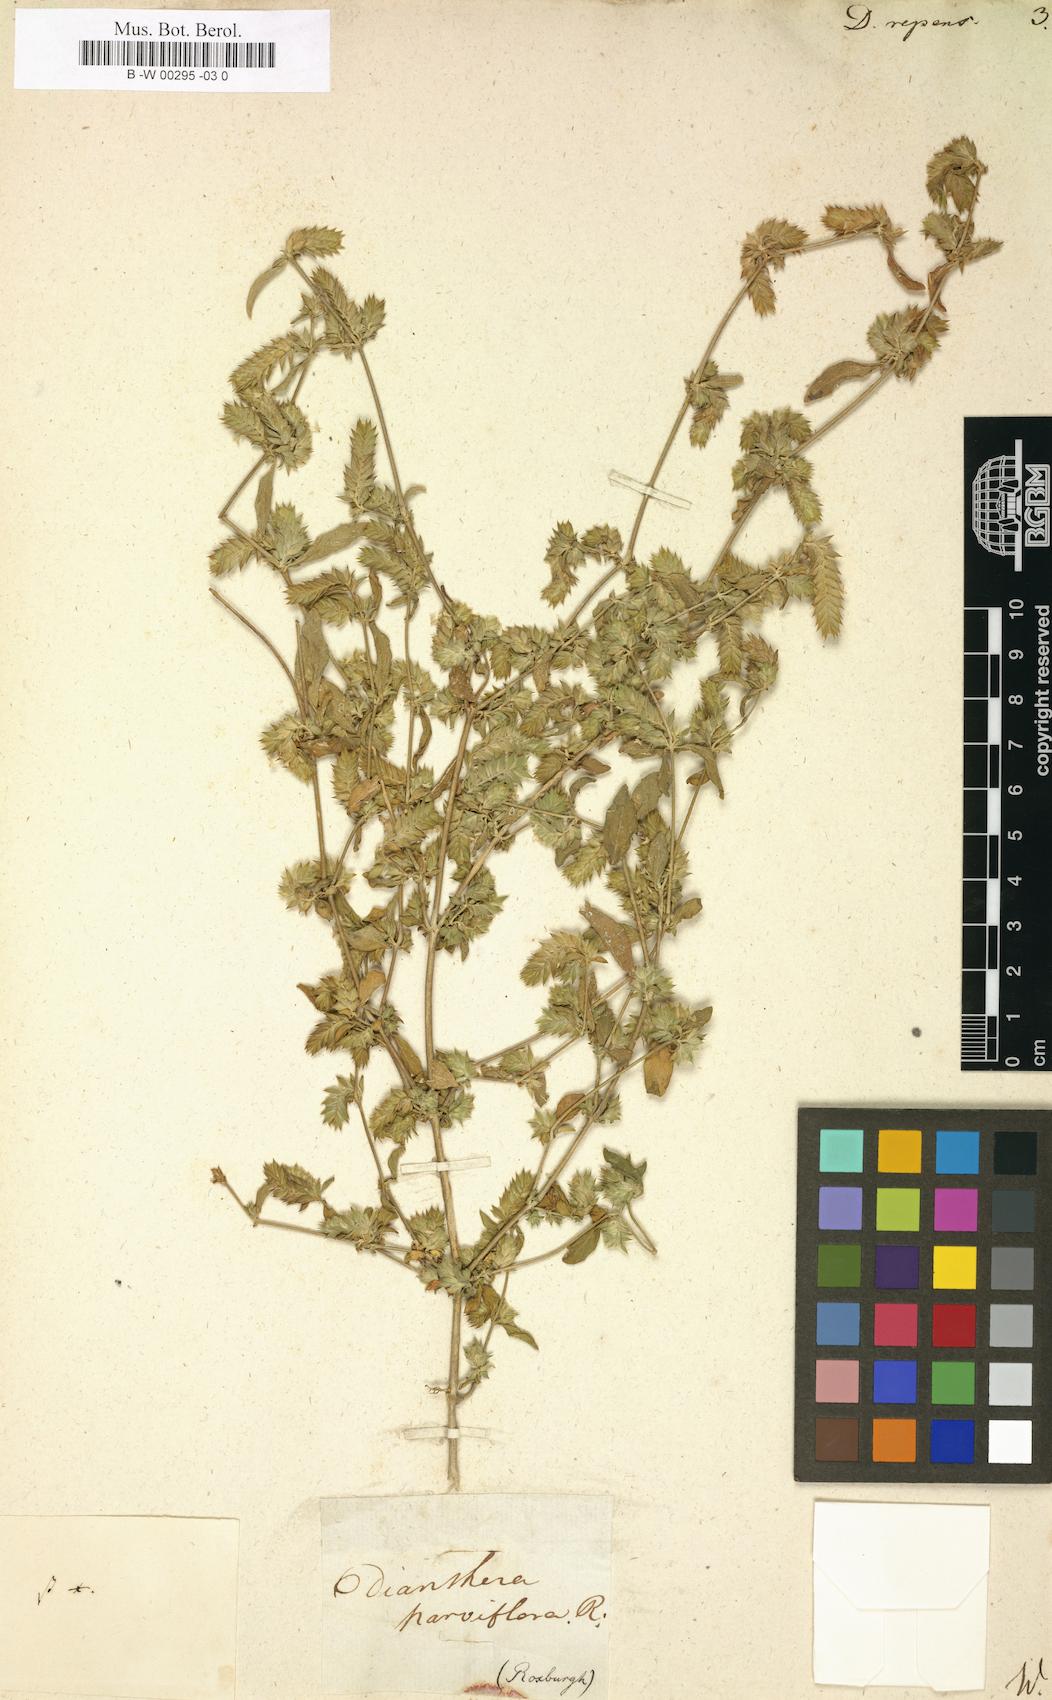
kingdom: Plantae
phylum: Tracheophyta
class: Magnoliopsida
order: Lamiales
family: Acanthaceae
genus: Rungia
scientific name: Rungia repens
